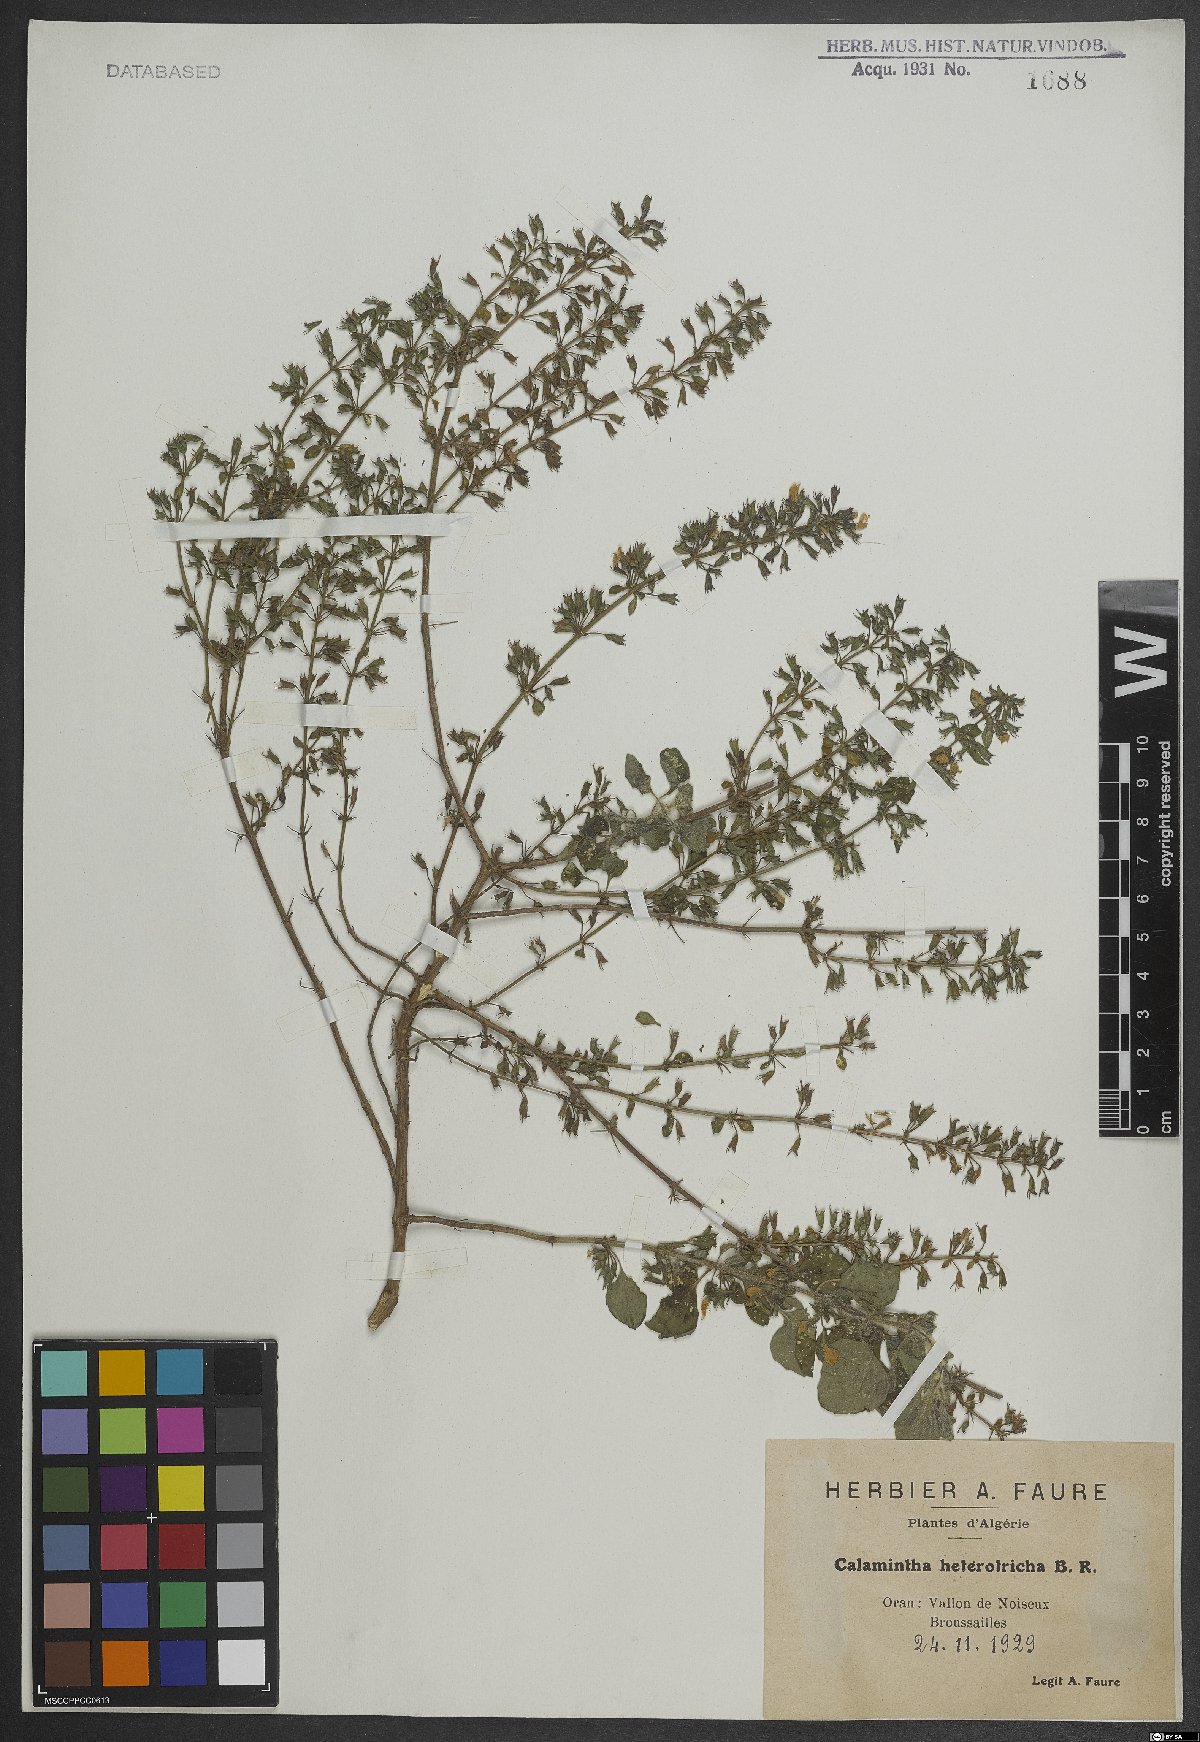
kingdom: Plantae
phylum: Tracheophyta
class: Magnoliopsida
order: Lamiales
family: Lamiaceae
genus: Clinopodium
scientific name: Clinopodium heterotrichum
